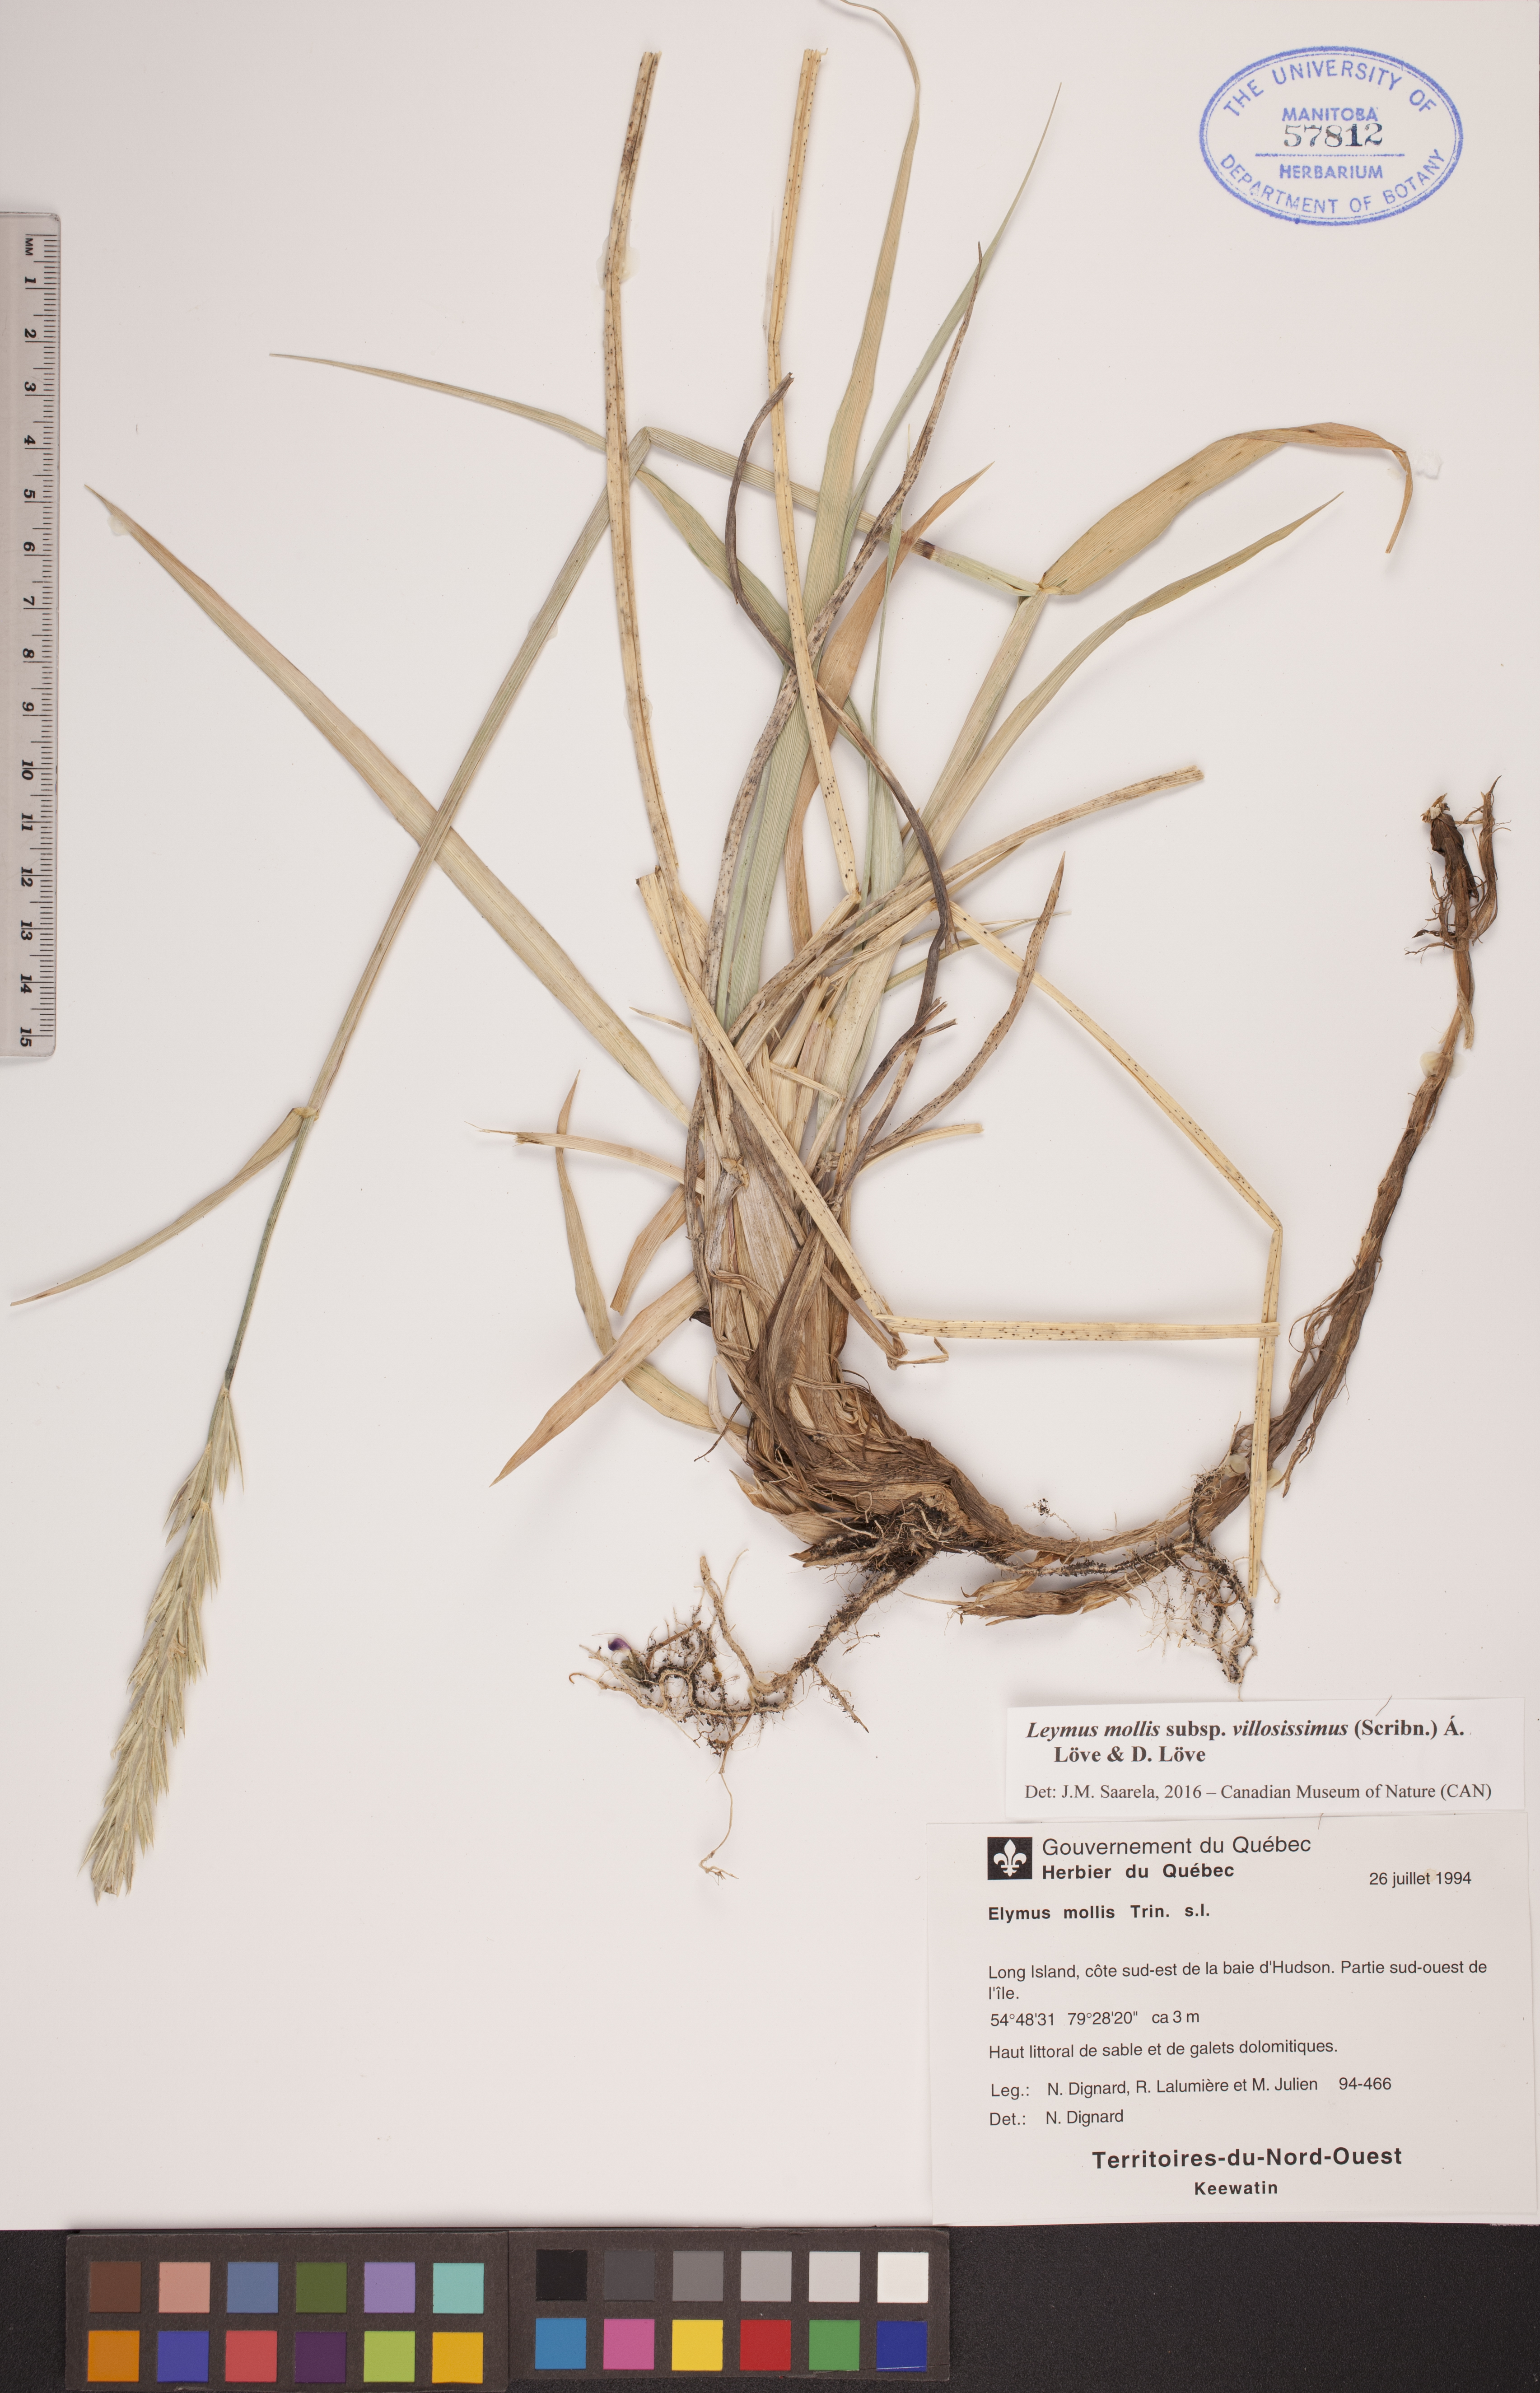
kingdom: Plantae
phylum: Tracheophyta
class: Liliopsida
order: Poales
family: Poaceae
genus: Leymus
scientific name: Leymus villosissimus
